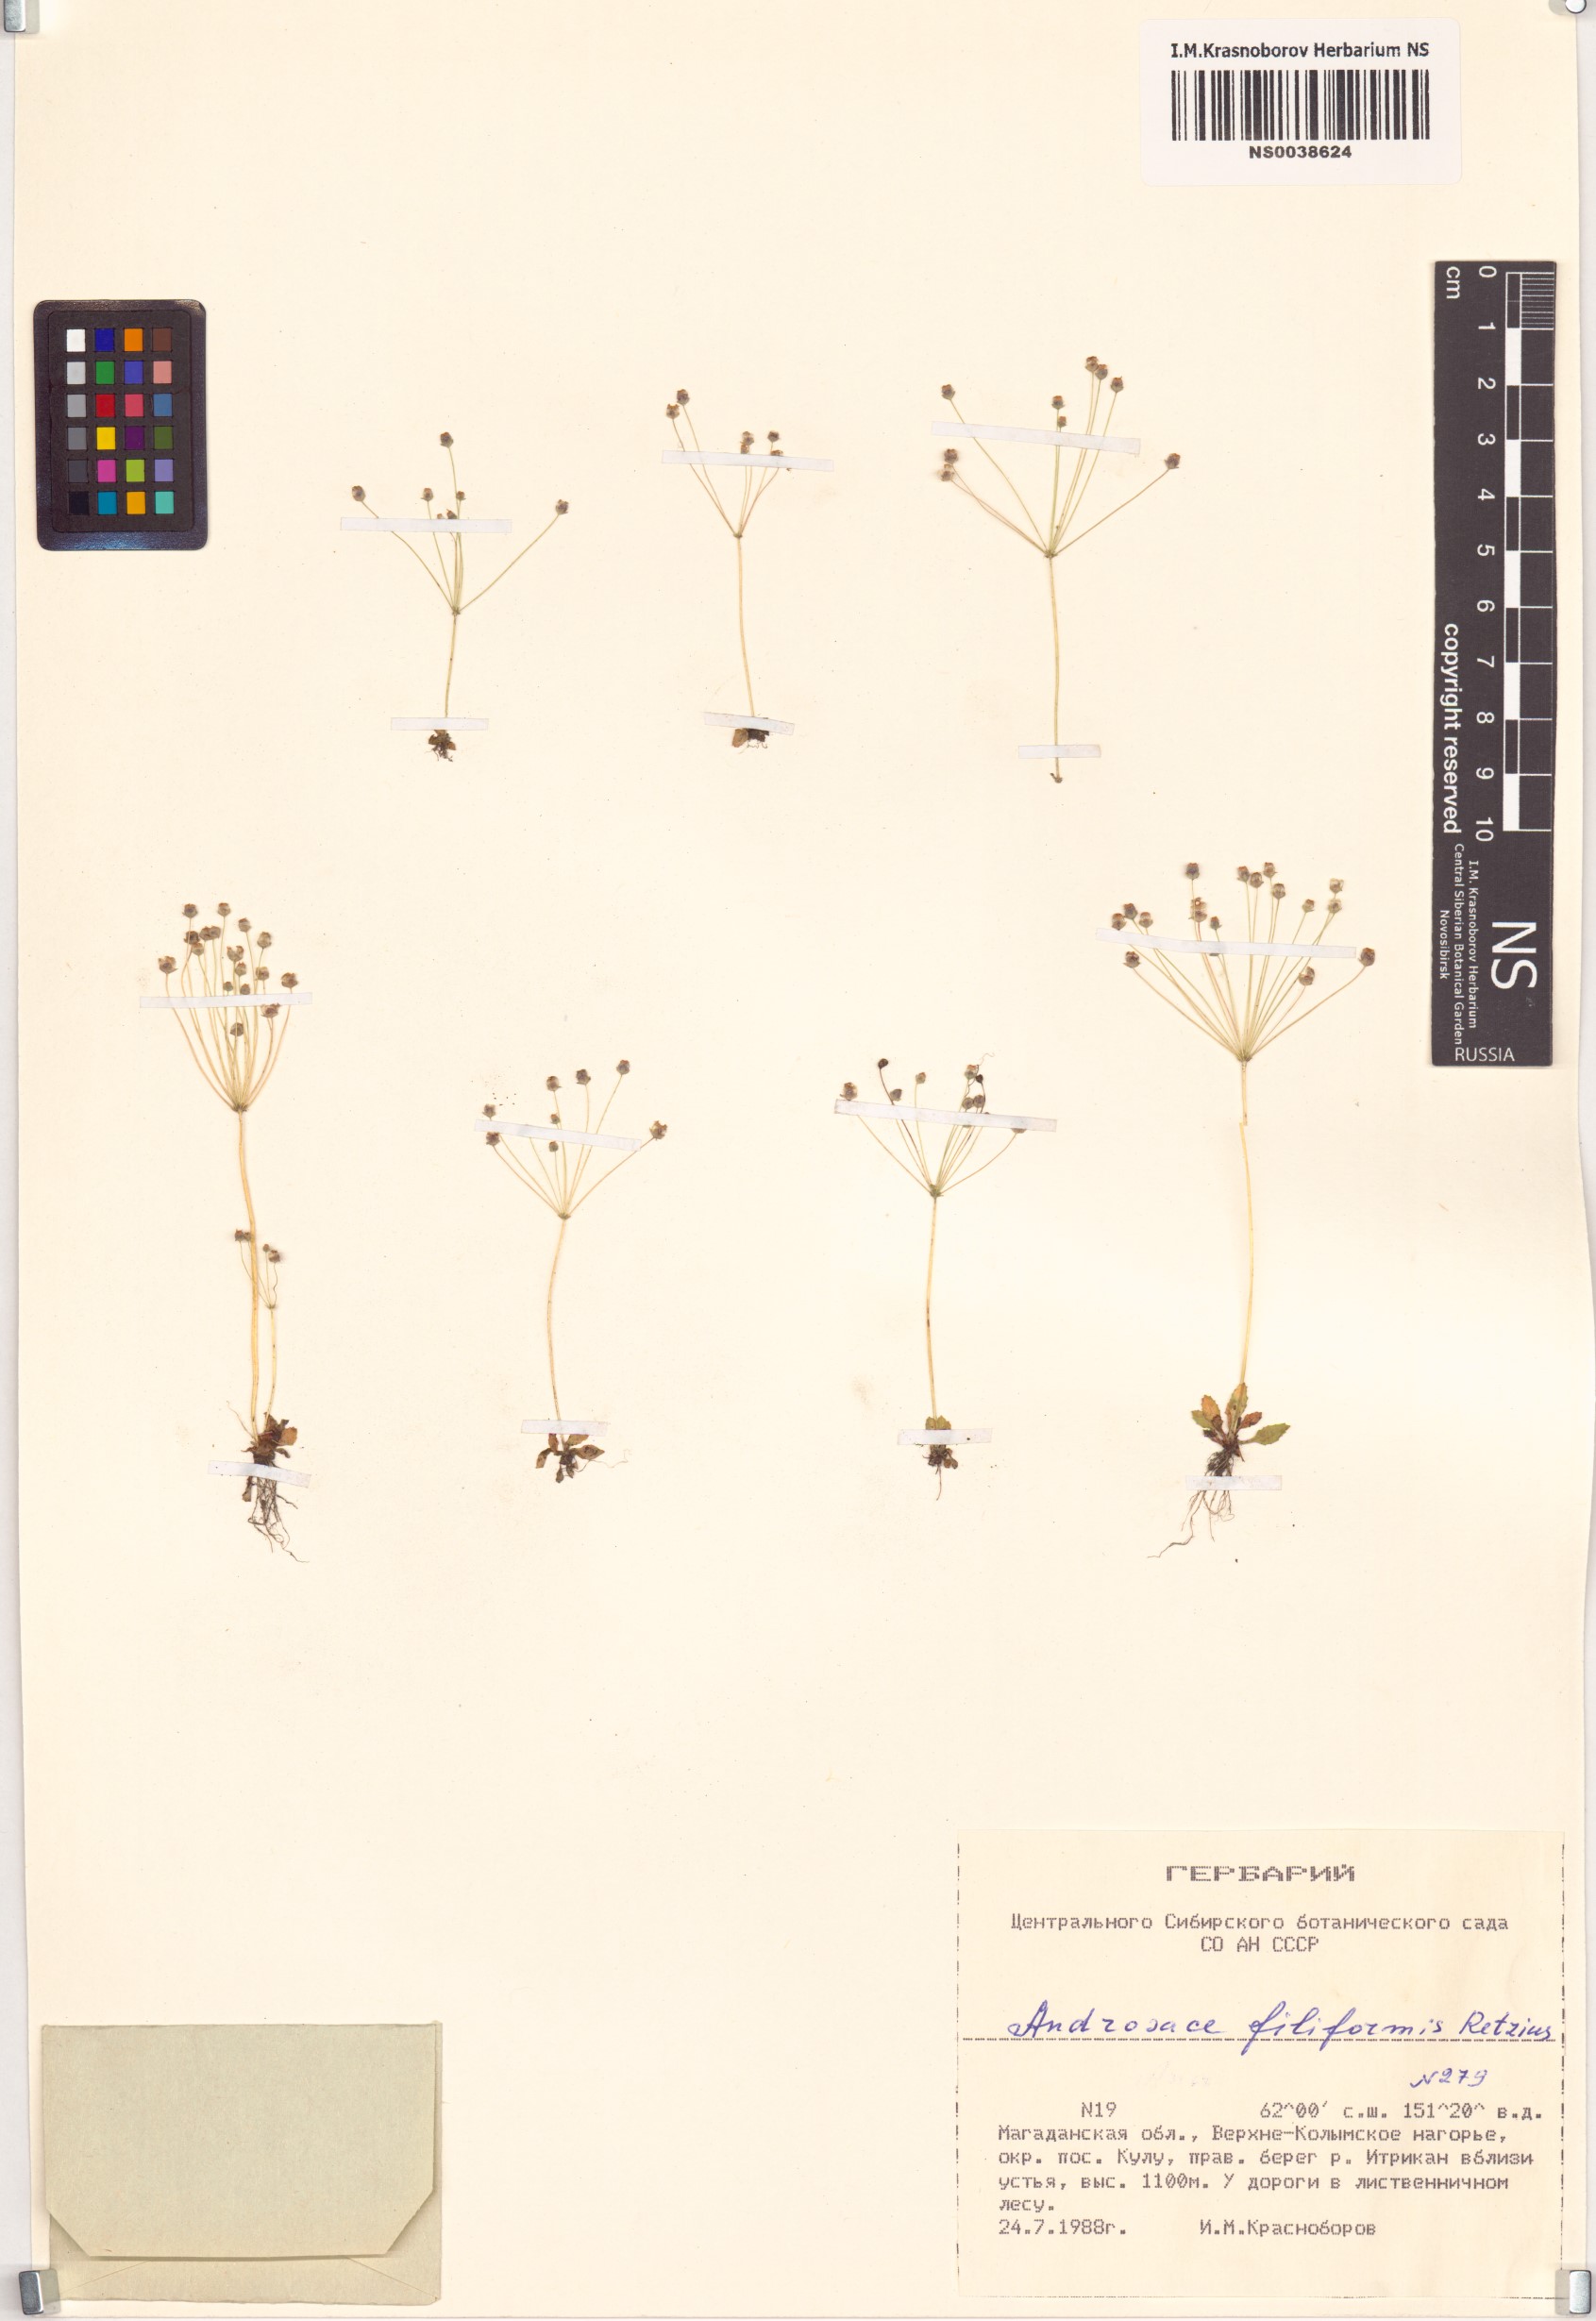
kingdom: Plantae
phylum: Tracheophyta
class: Magnoliopsida
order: Ericales
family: Primulaceae
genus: Androsace
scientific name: Androsace filiformis
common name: Filiform rock jasmine
